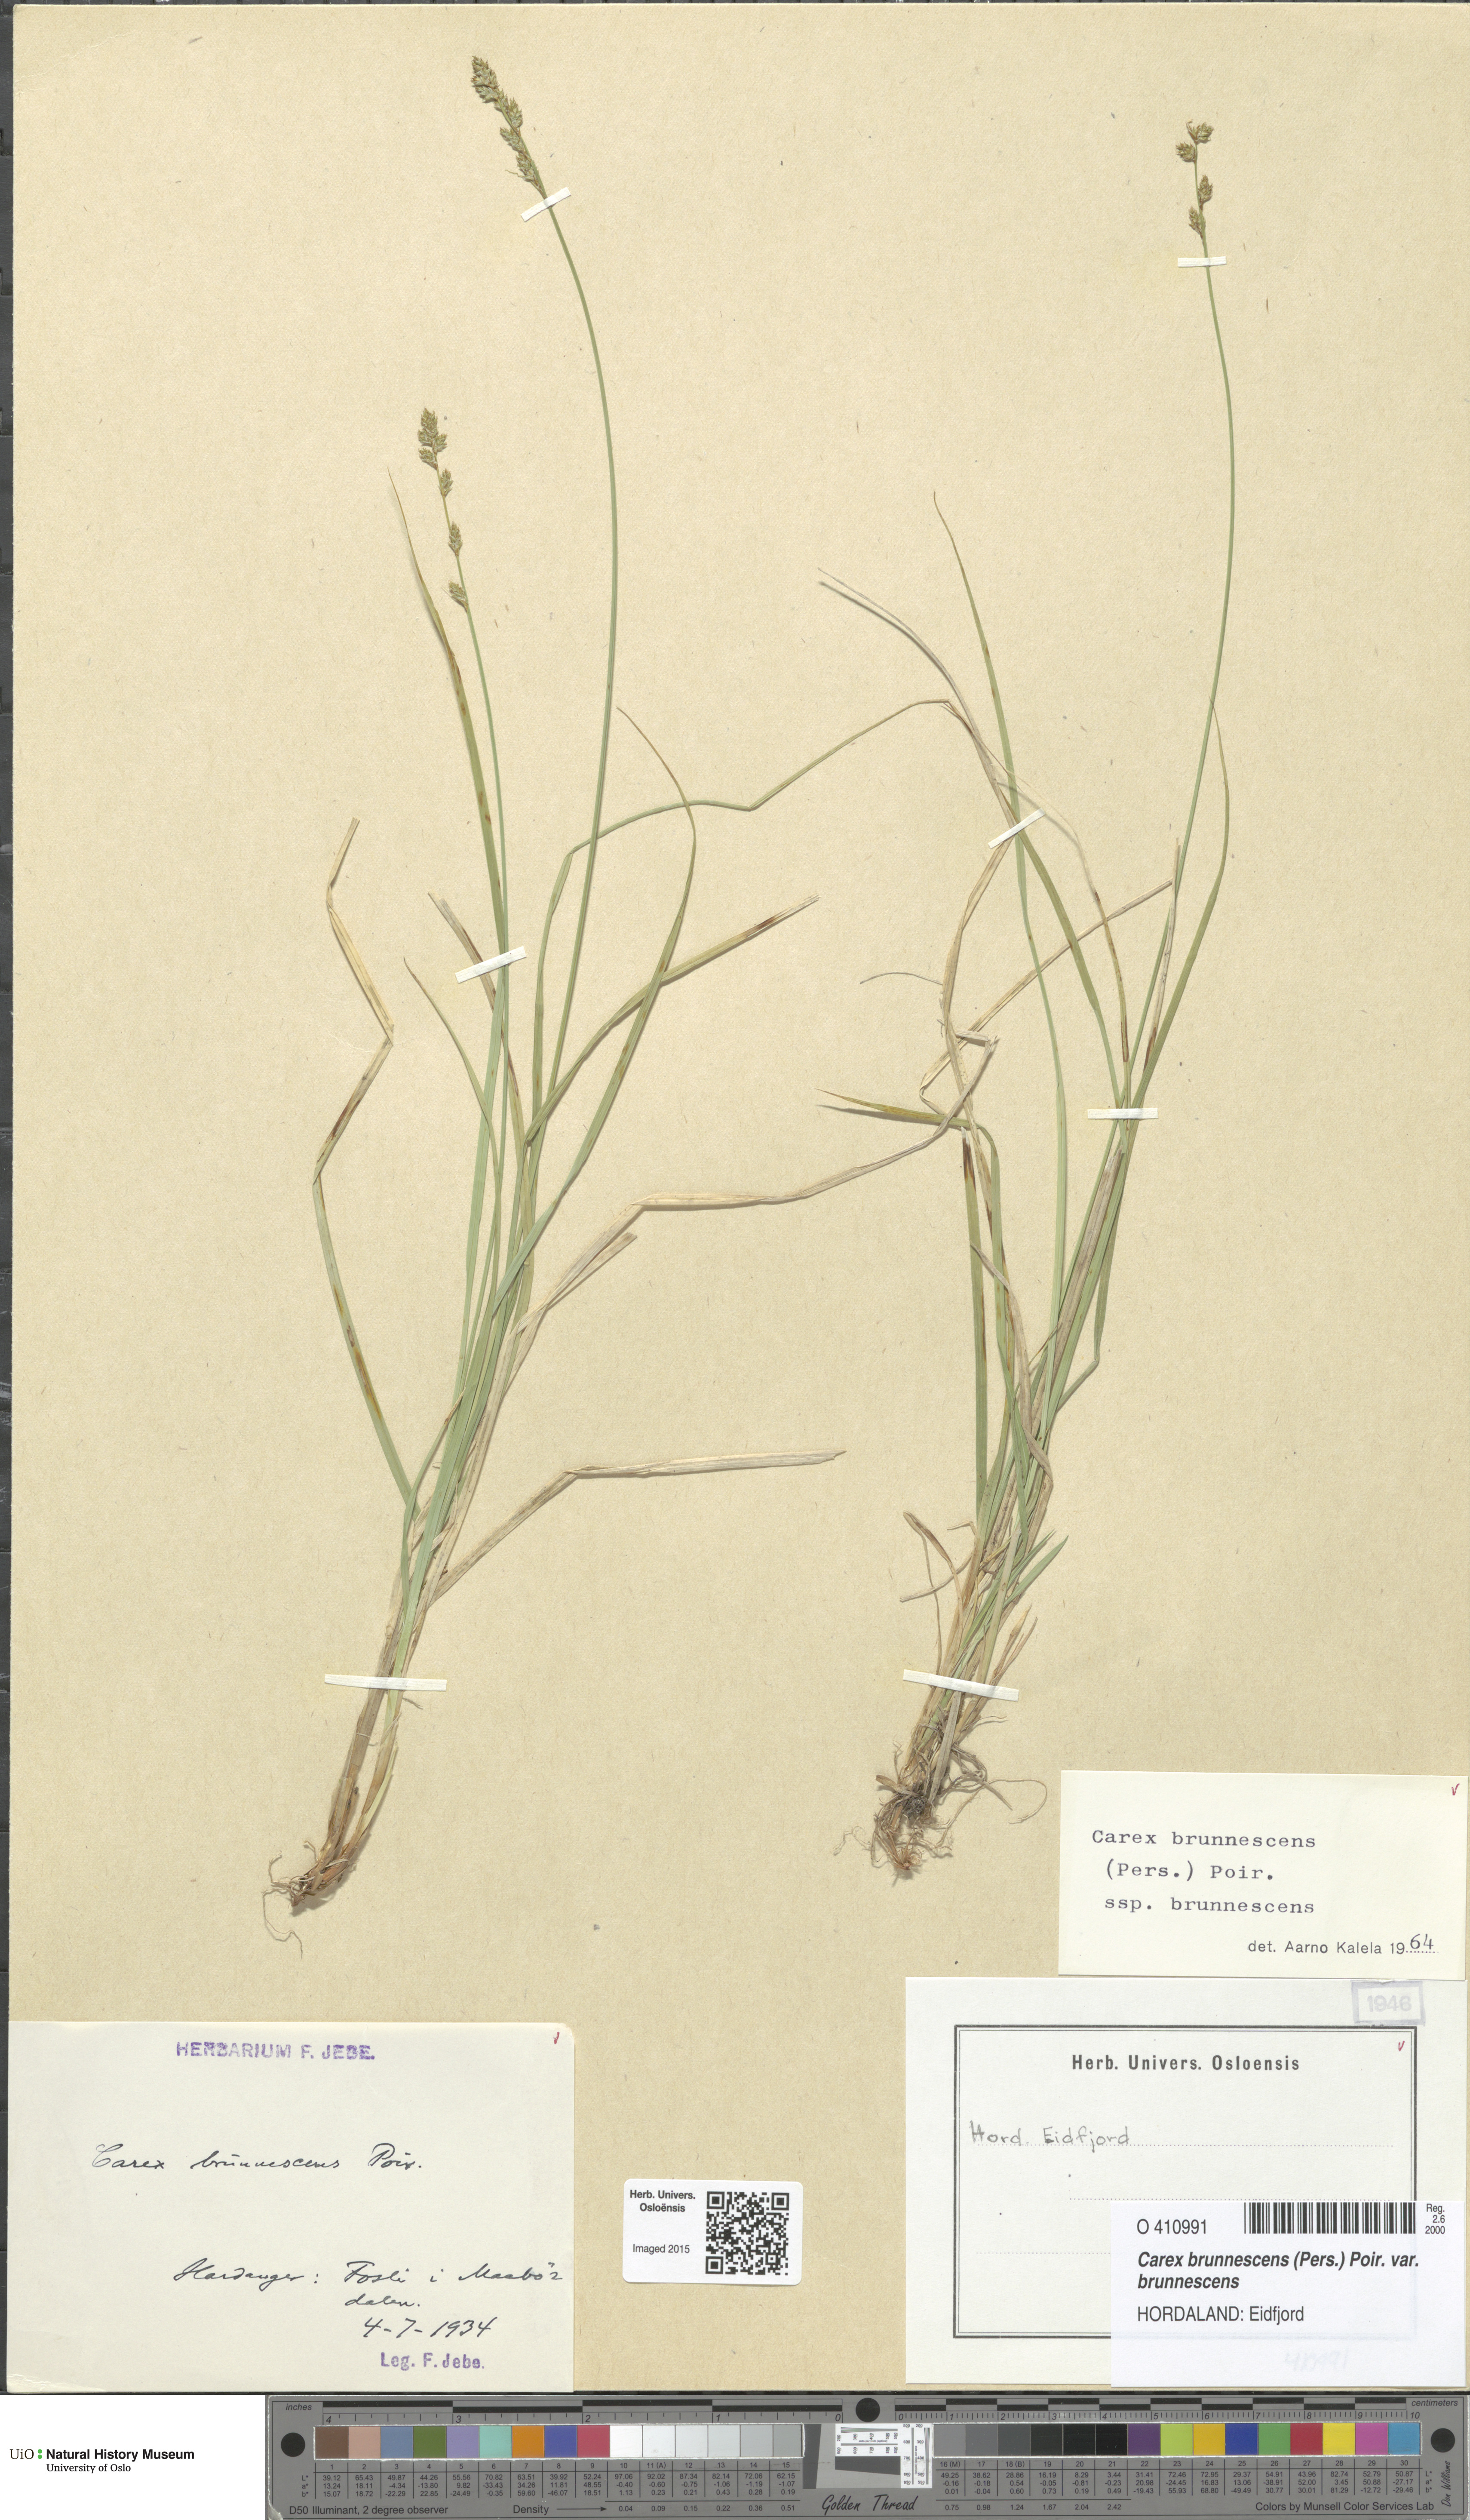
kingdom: Plantae
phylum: Tracheophyta
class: Liliopsida
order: Poales
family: Cyperaceae
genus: Carex
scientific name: Carex brunnescens
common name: Brown sedge
